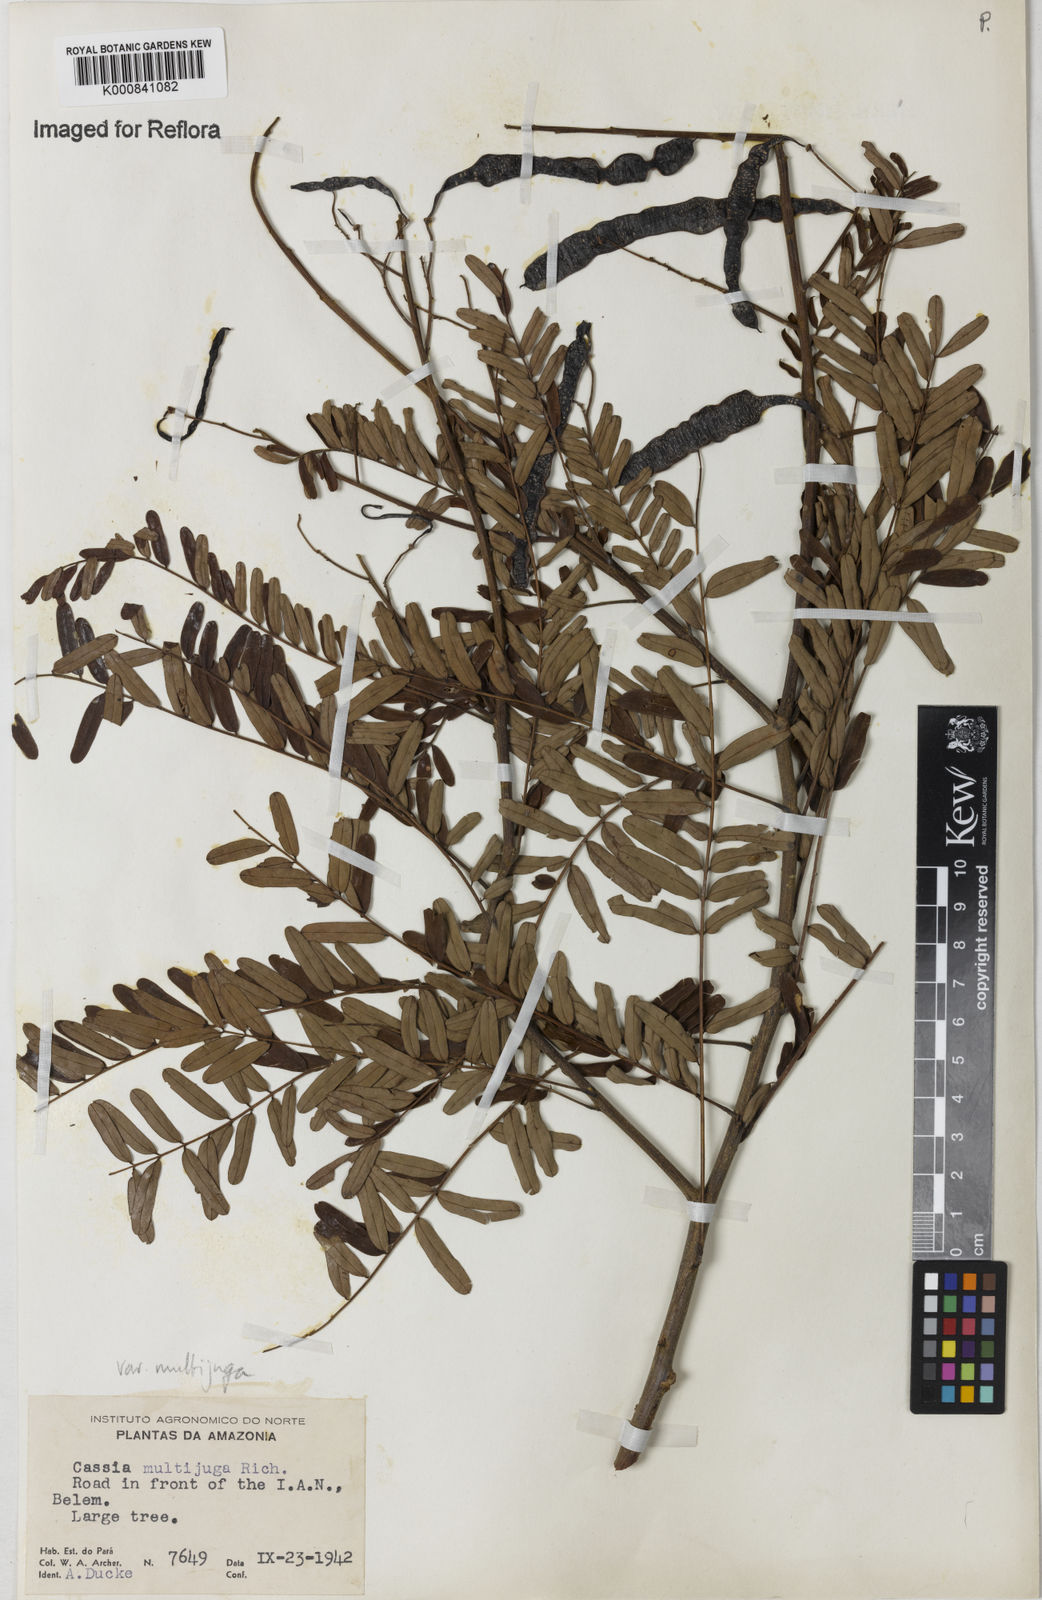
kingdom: Plantae
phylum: Tracheophyta
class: Magnoliopsida
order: Fabales
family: Fabaceae
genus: Senna
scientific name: Senna multijuga
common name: False sicklepod
